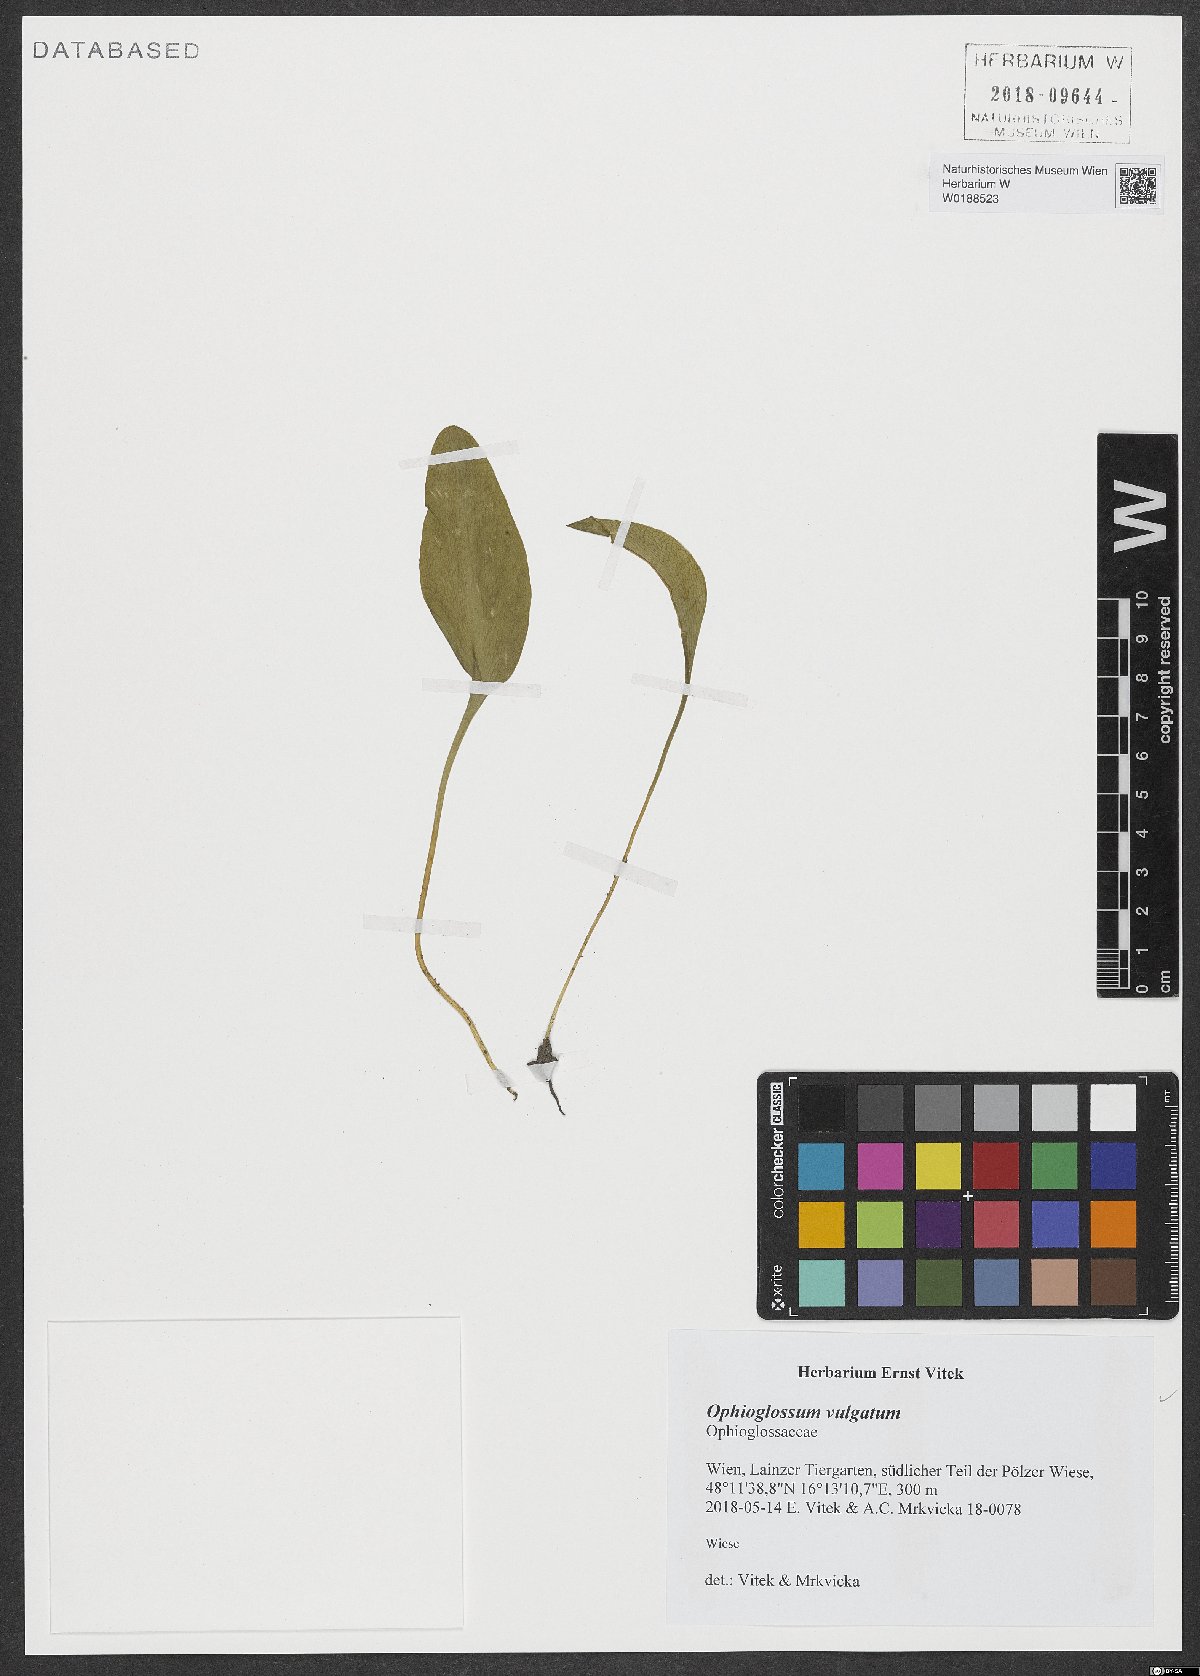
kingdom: Plantae
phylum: Tracheophyta
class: Polypodiopsida
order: Ophioglossales
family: Ophioglossaceae
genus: Ophioglossum
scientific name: Ophioglossum vulgatum
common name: Adder's-tongue
